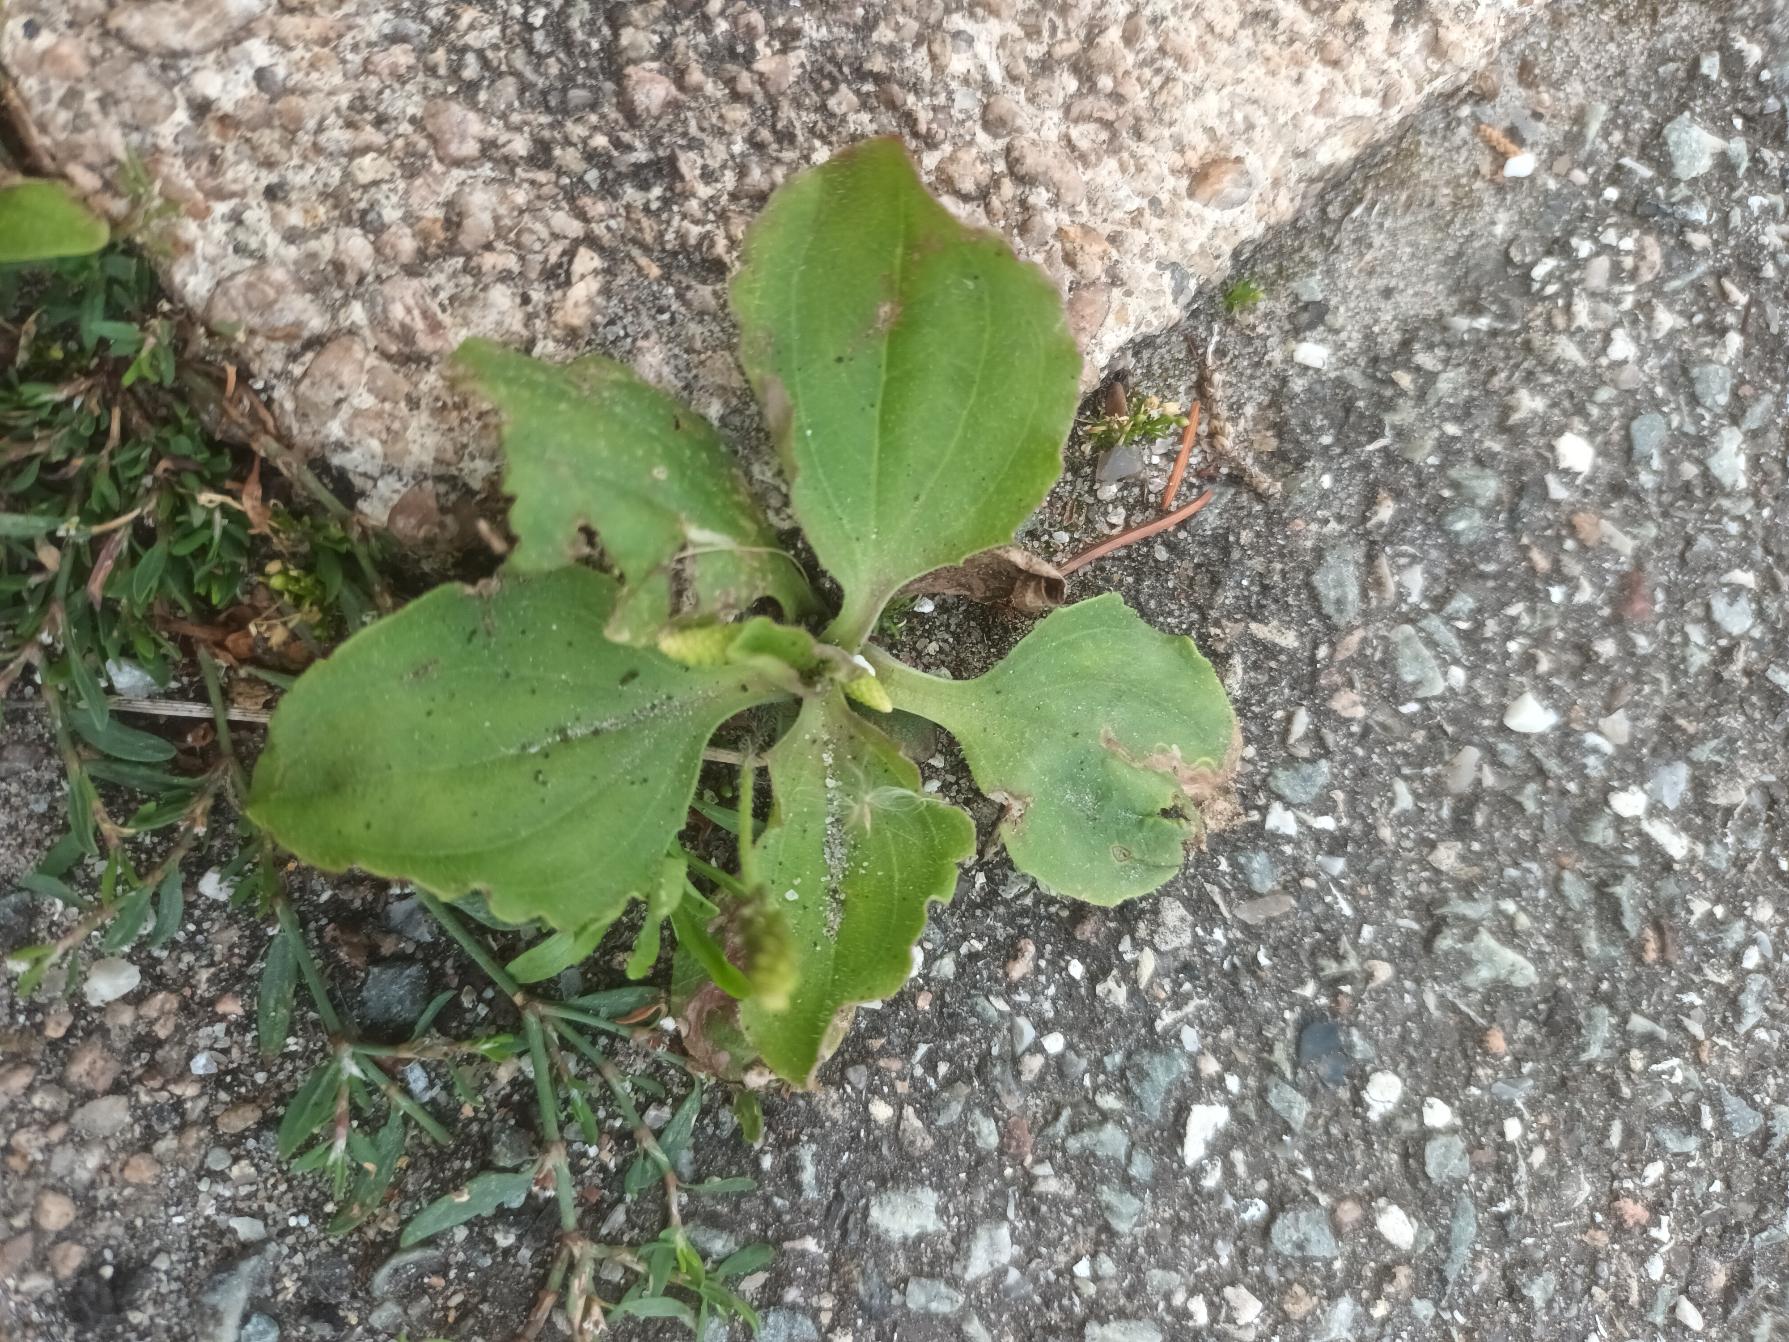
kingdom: Plantae
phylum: Tracheophyta
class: Magnoliopsida
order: Lamiales
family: Plantaginaceae
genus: Plantago
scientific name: Plantago major
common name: Glat vejbred
